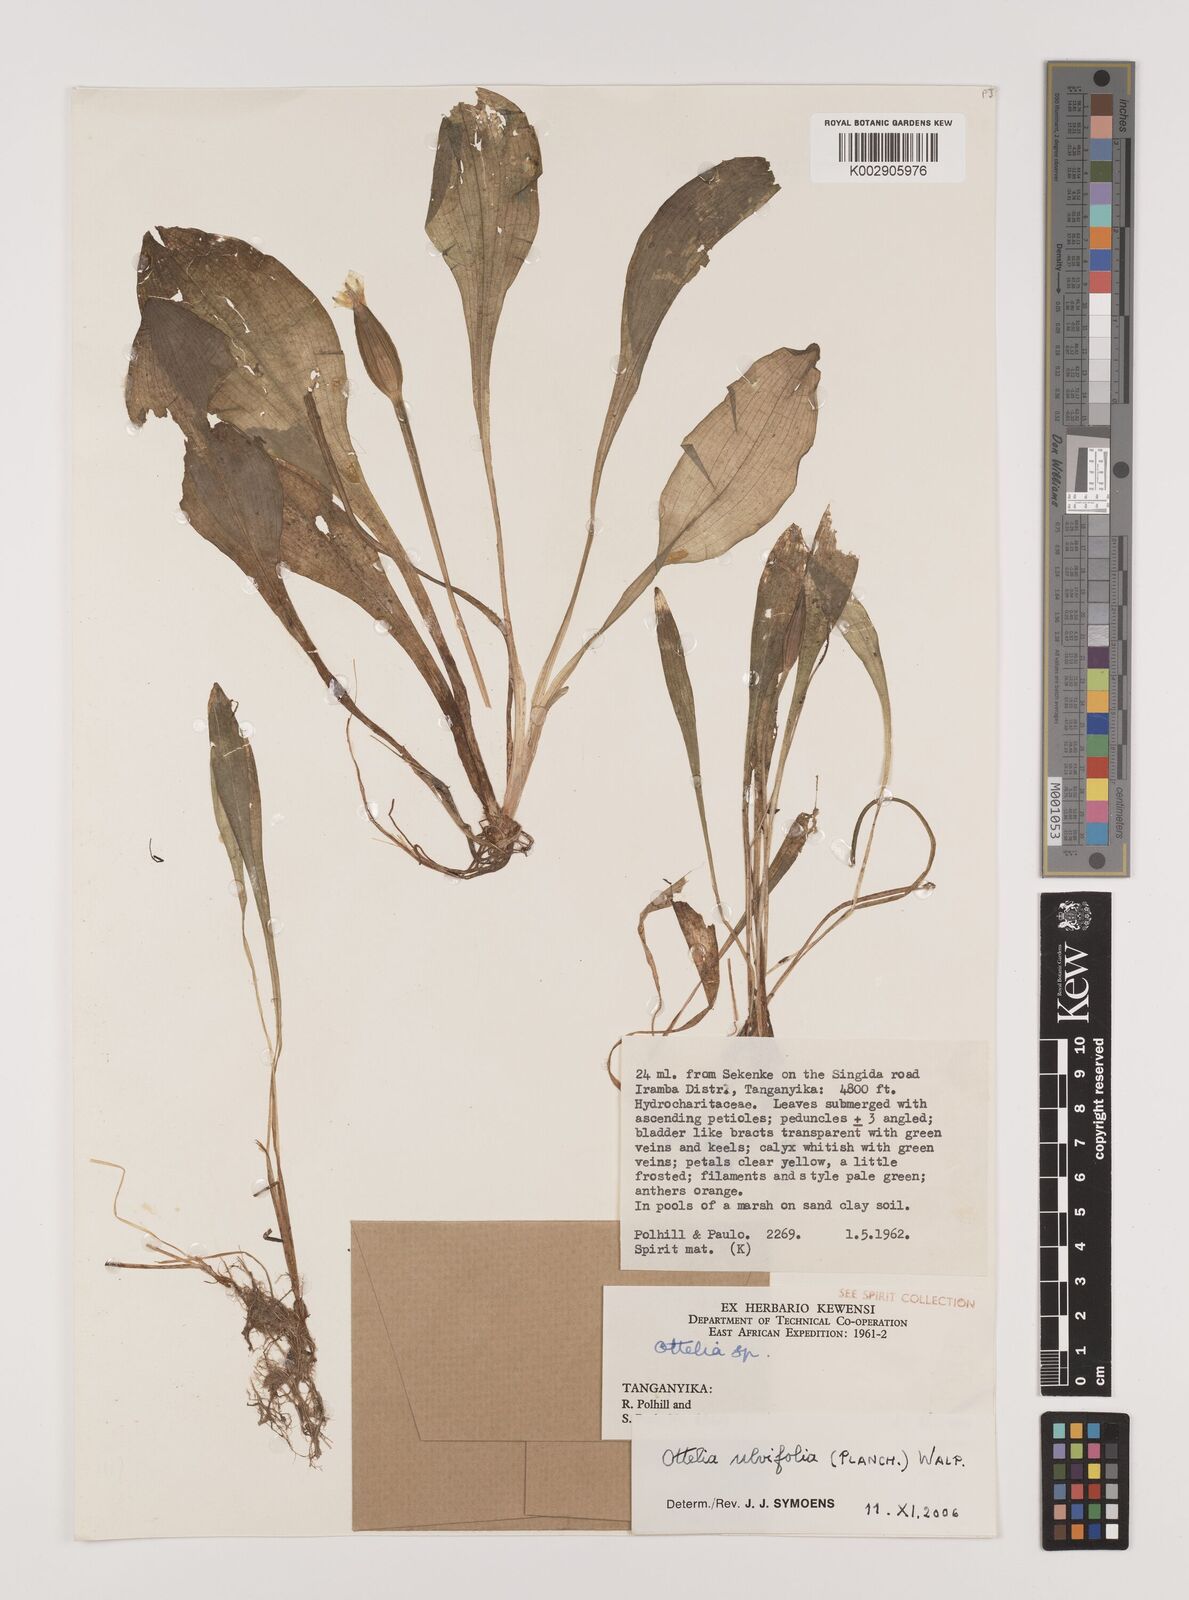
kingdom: Plantae
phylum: Tracheophyta
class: Liliopsida
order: Alismatales
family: Hydrocharitaceae
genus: Ottelia
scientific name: Ottelia ulvifolia
